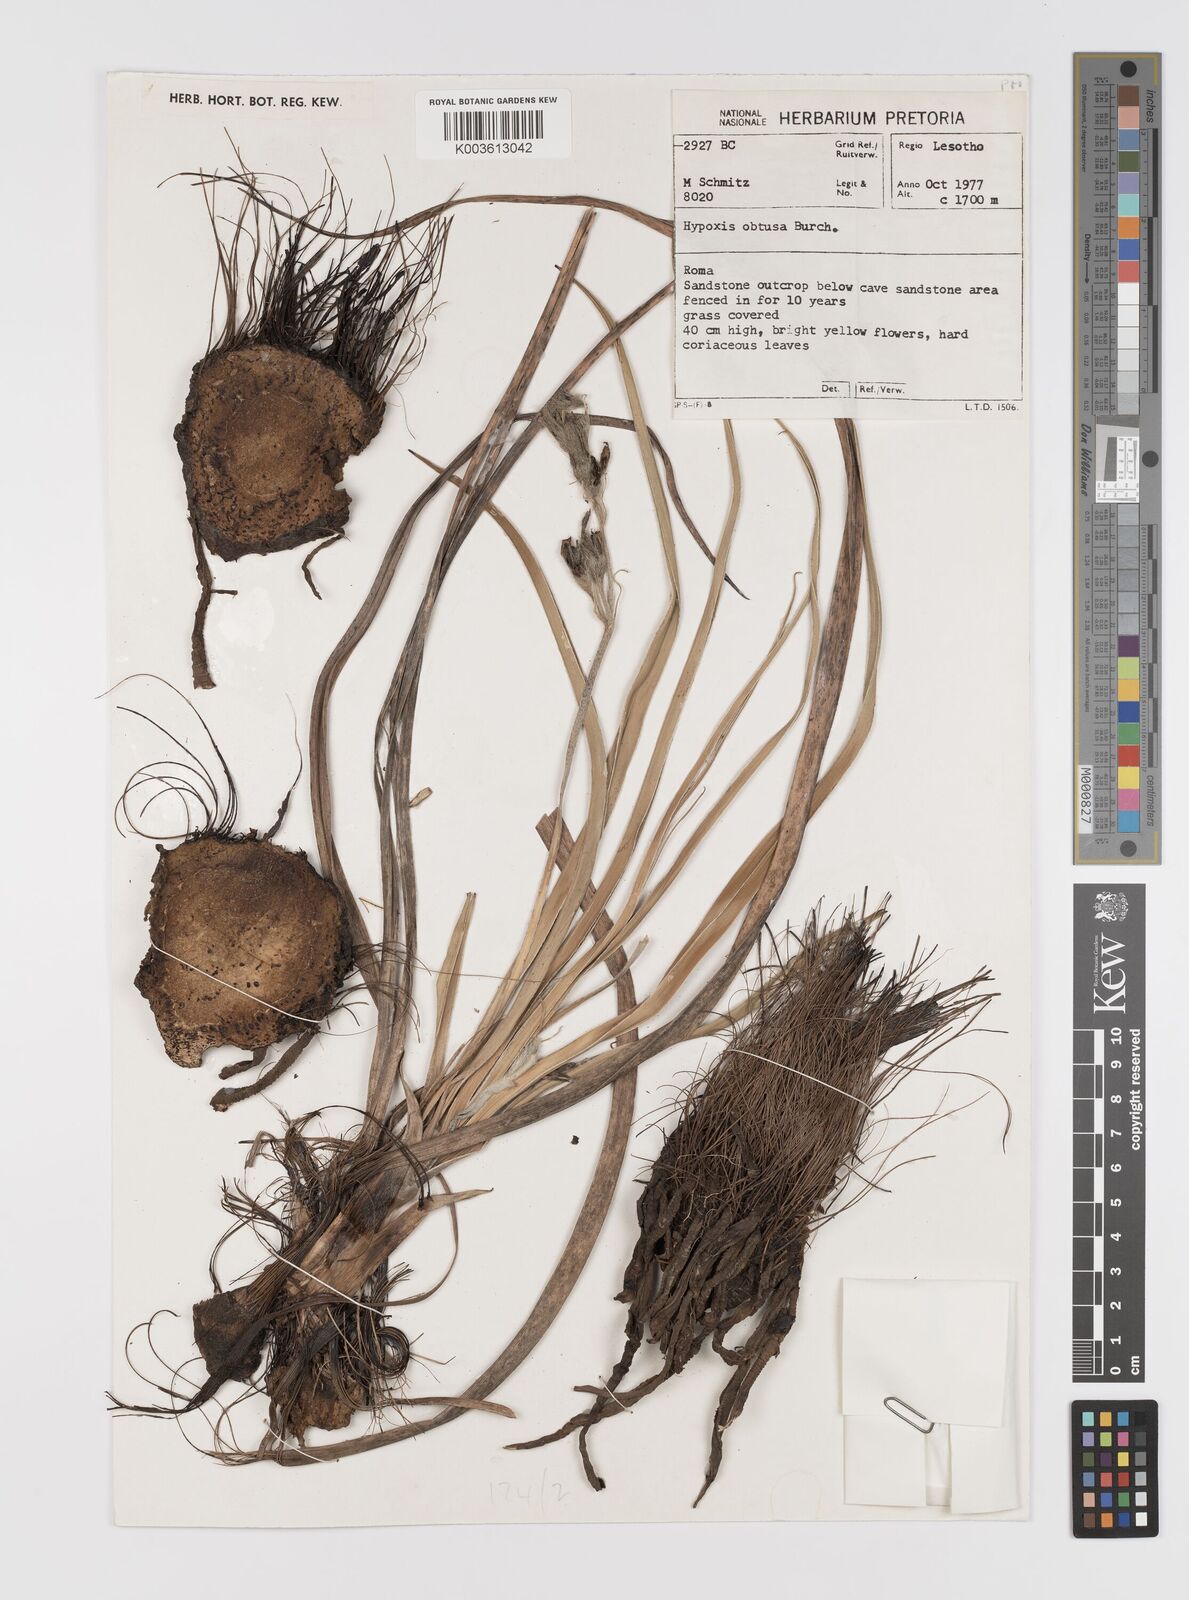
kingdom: Plantae
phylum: Tracheophyta
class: Liliopsida
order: Asparagales
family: Hypoxidaceae
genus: Hypoxis
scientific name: Hypoxis obtusa
